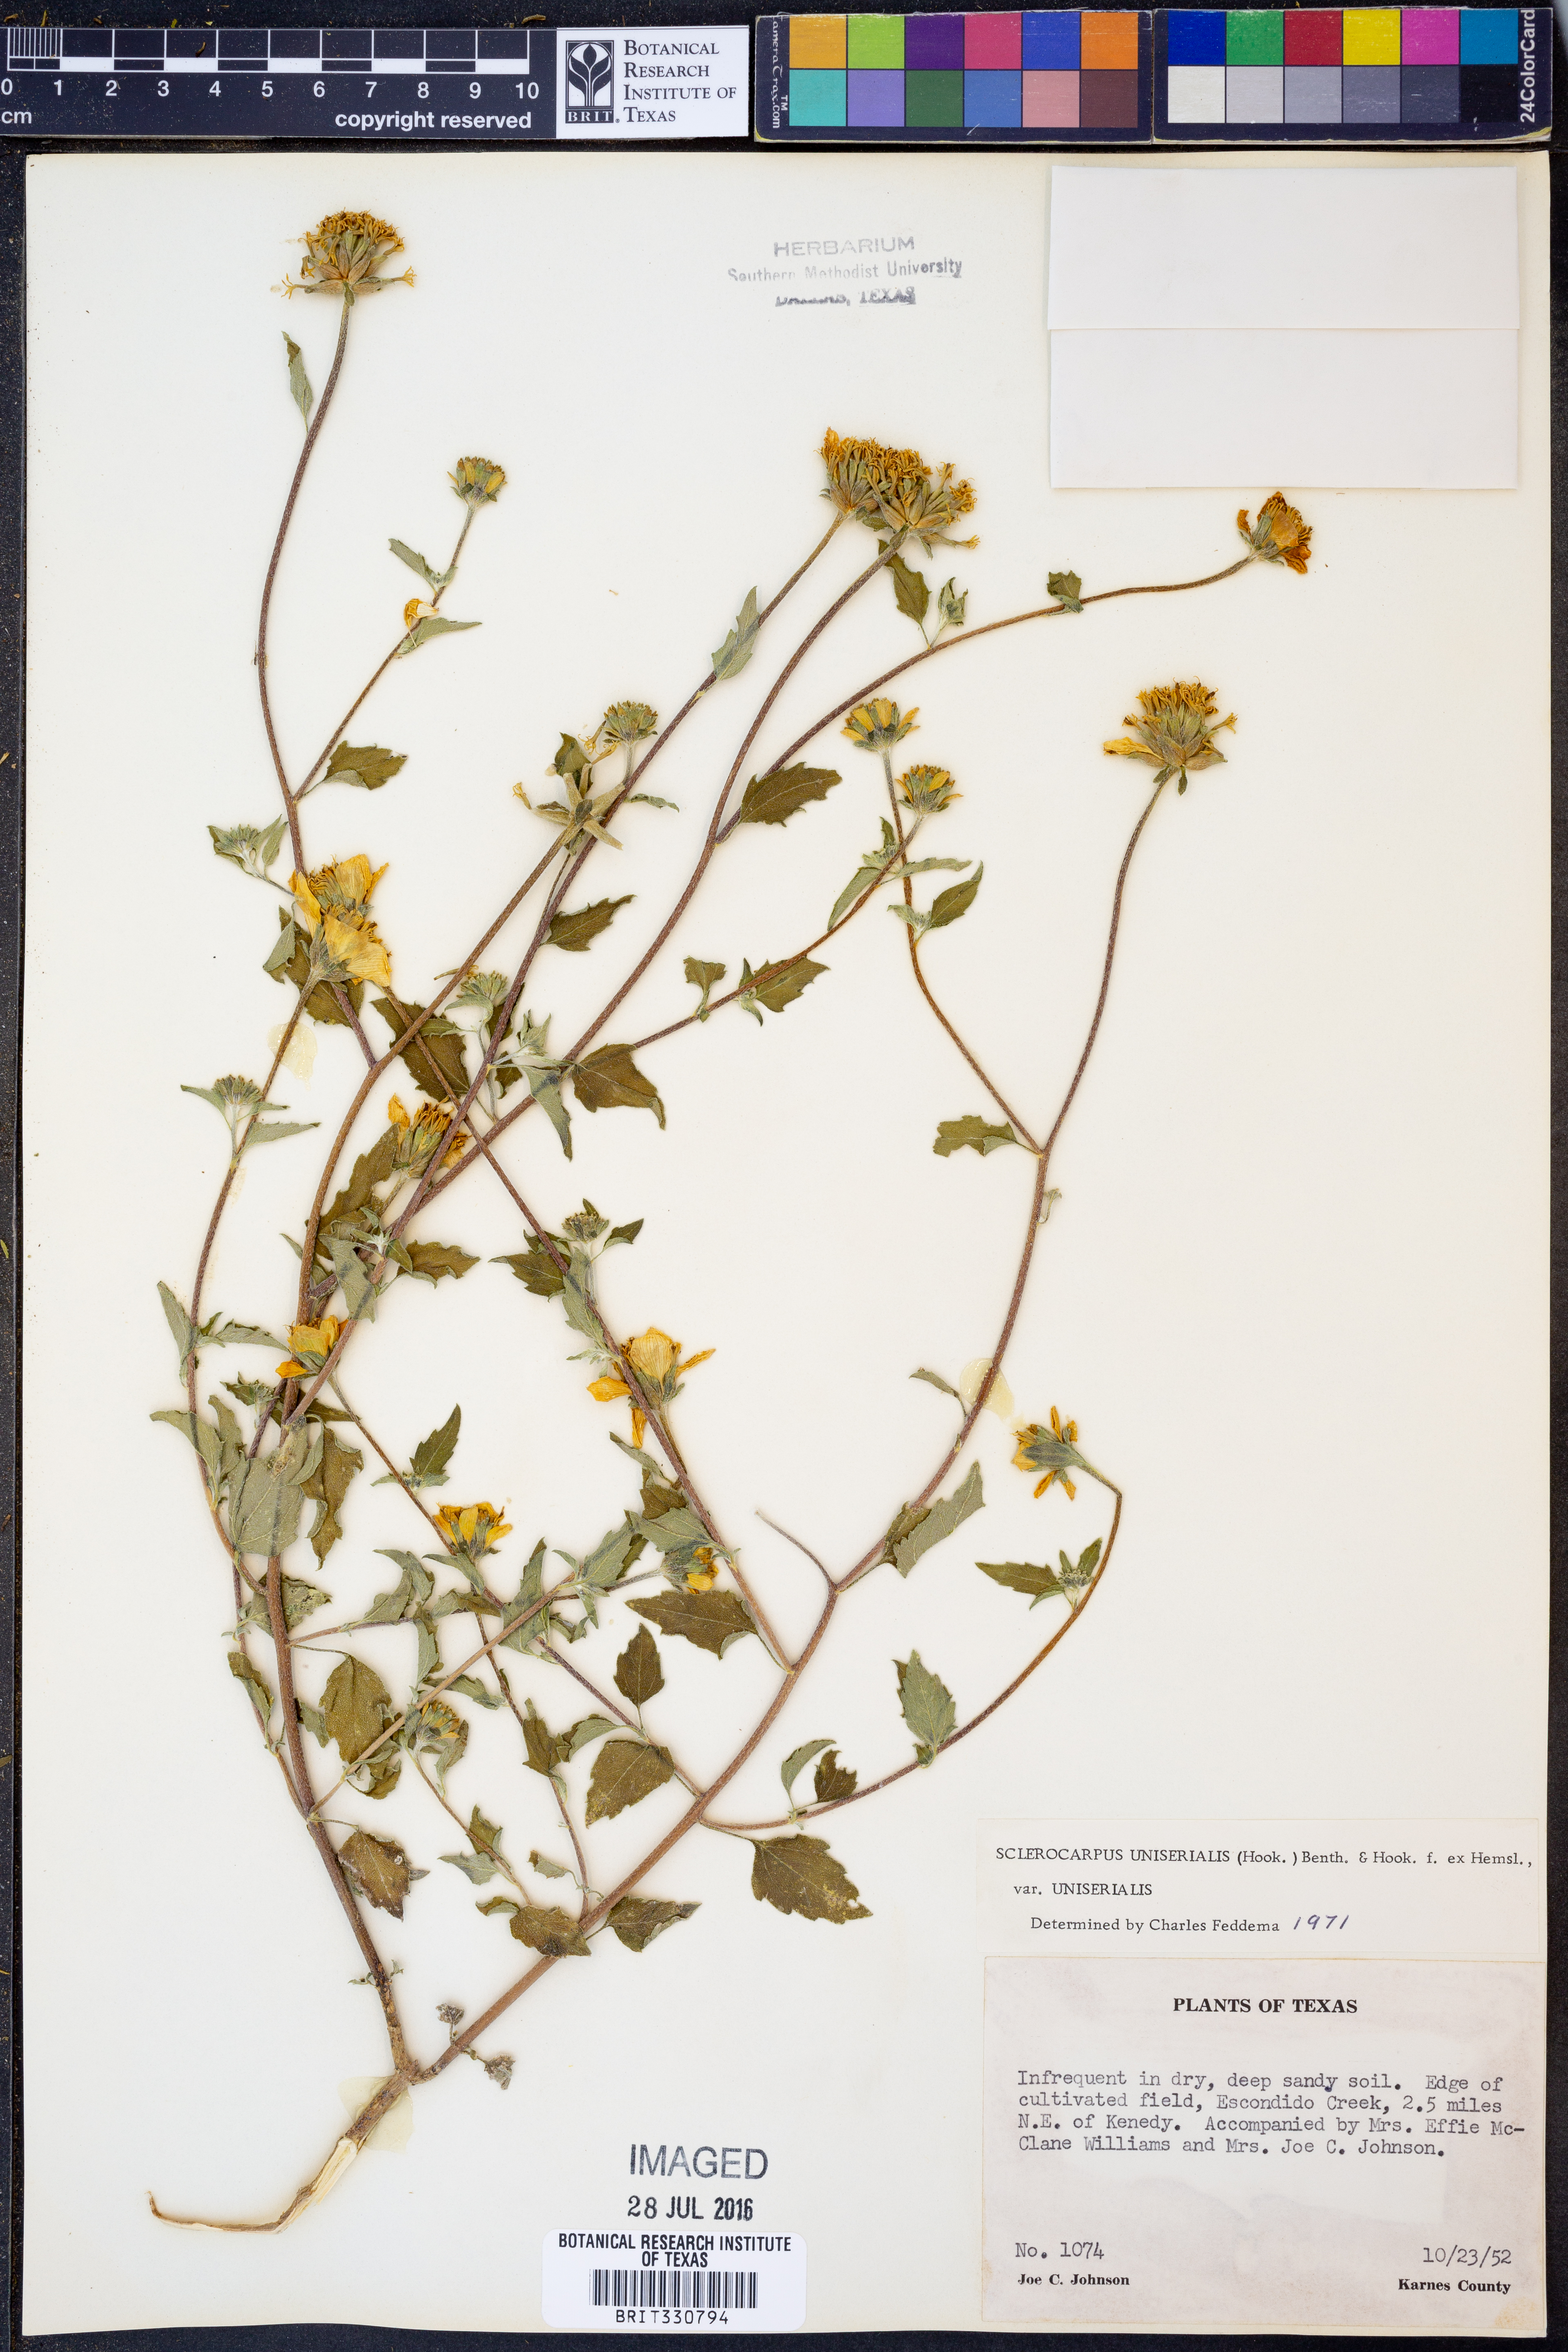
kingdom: Plantae
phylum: Tracheophyta
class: Magnoliopsida
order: Asterales
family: Asteraceae
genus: Sclerocarpus
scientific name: Sclerocarpus uniserialis
